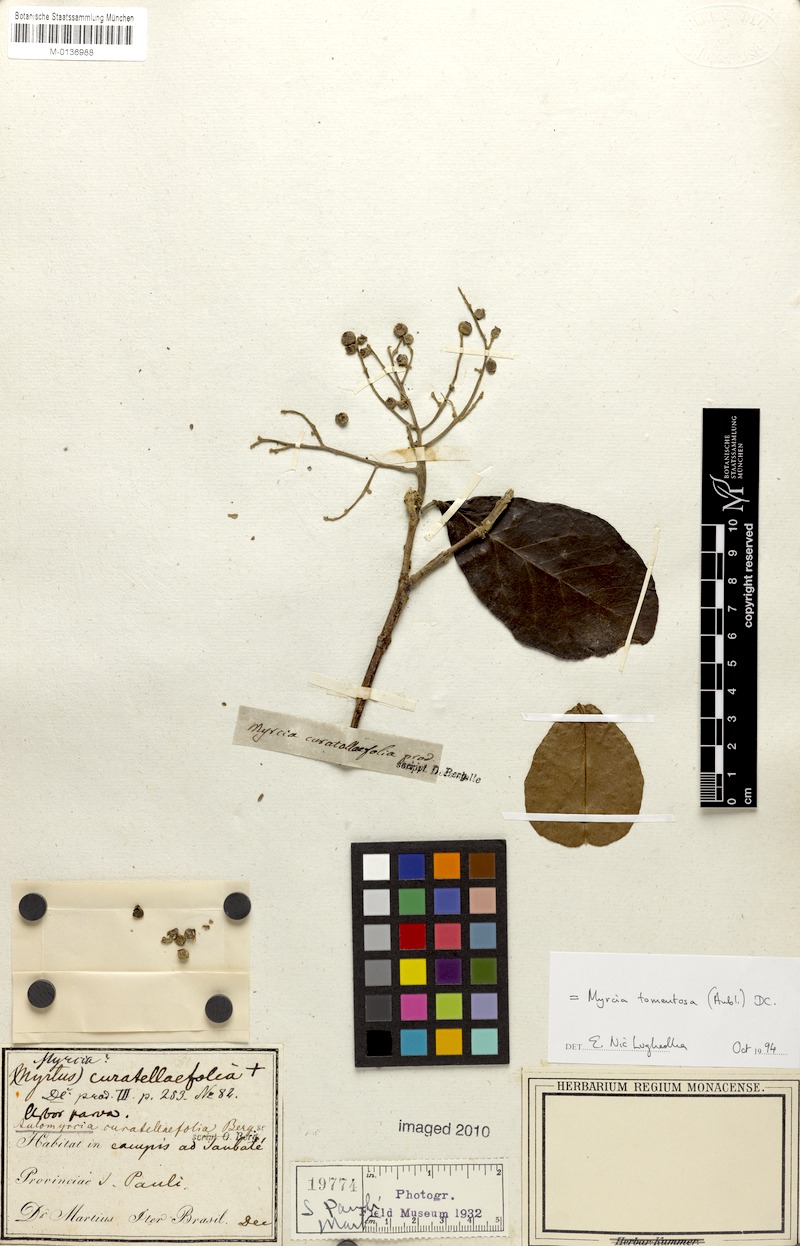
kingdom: Plantae
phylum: Tracheophyta
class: Magnoliopsida
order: Myrtales
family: Myrtaceae
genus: Myrcia
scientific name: Myrcia tomentosa
